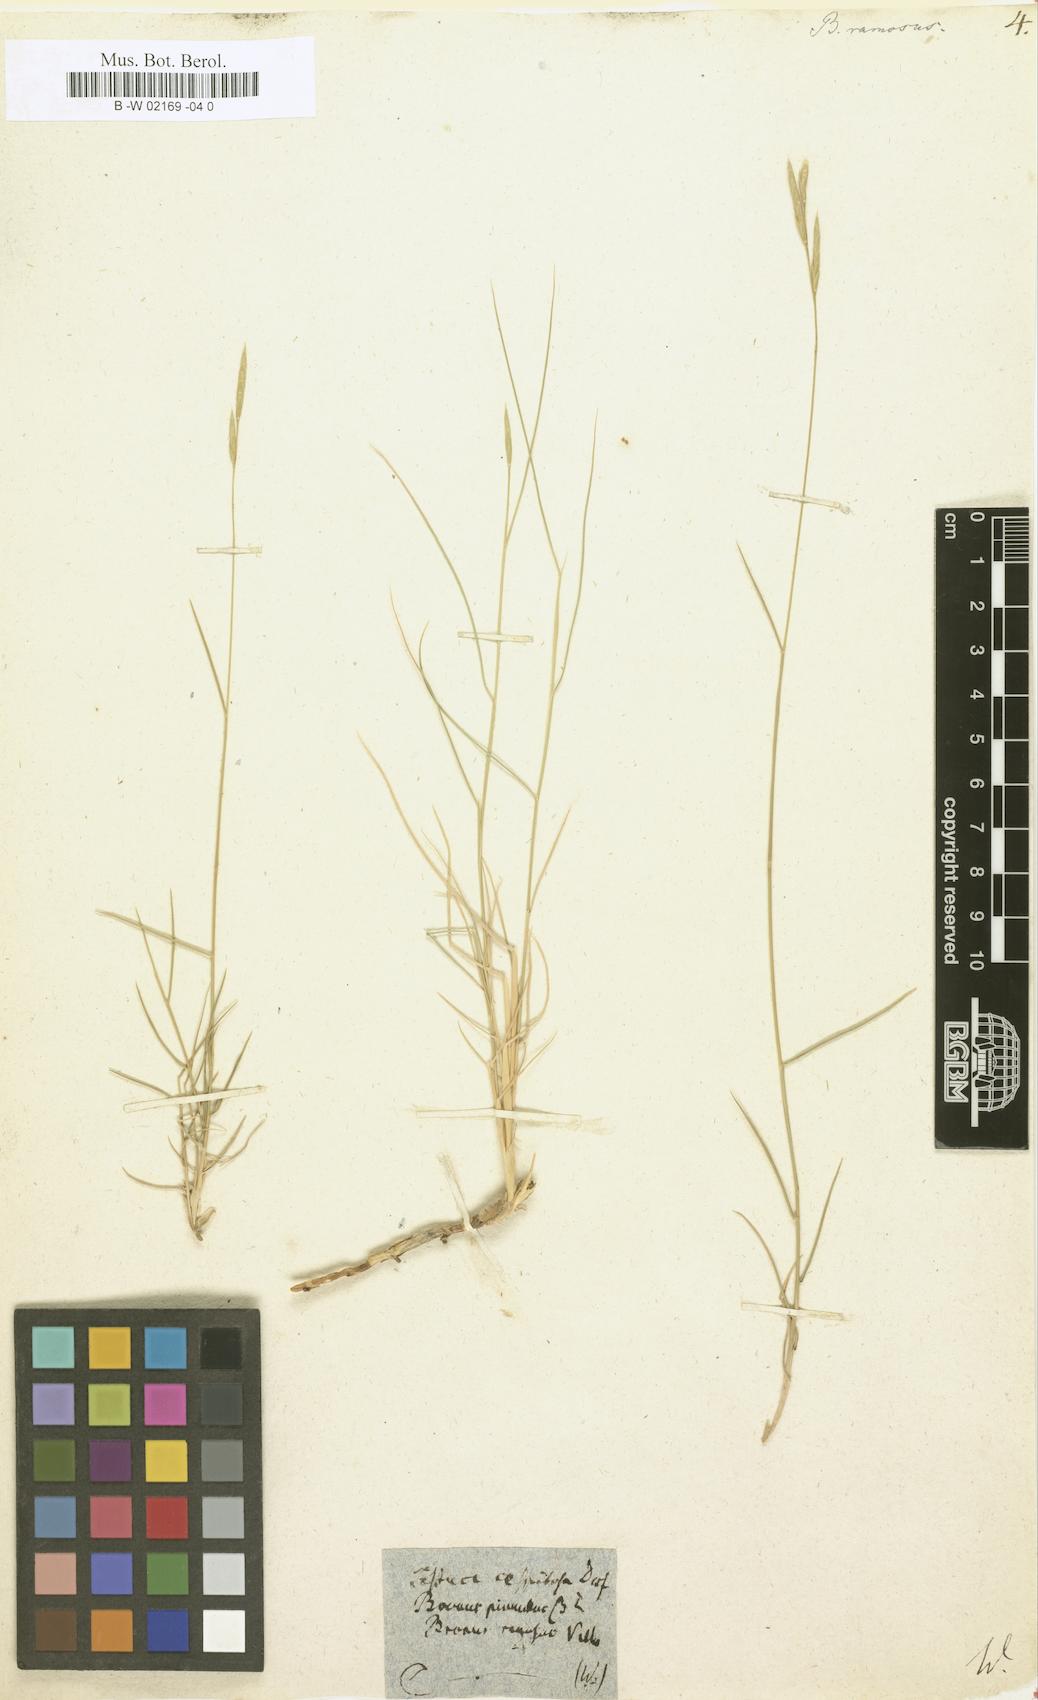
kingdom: Plantae
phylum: Tracheophyta
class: Liliopsida
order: Poales
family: Poaceae
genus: Bromus
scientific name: Bromus ramosus
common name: Hairy brome
